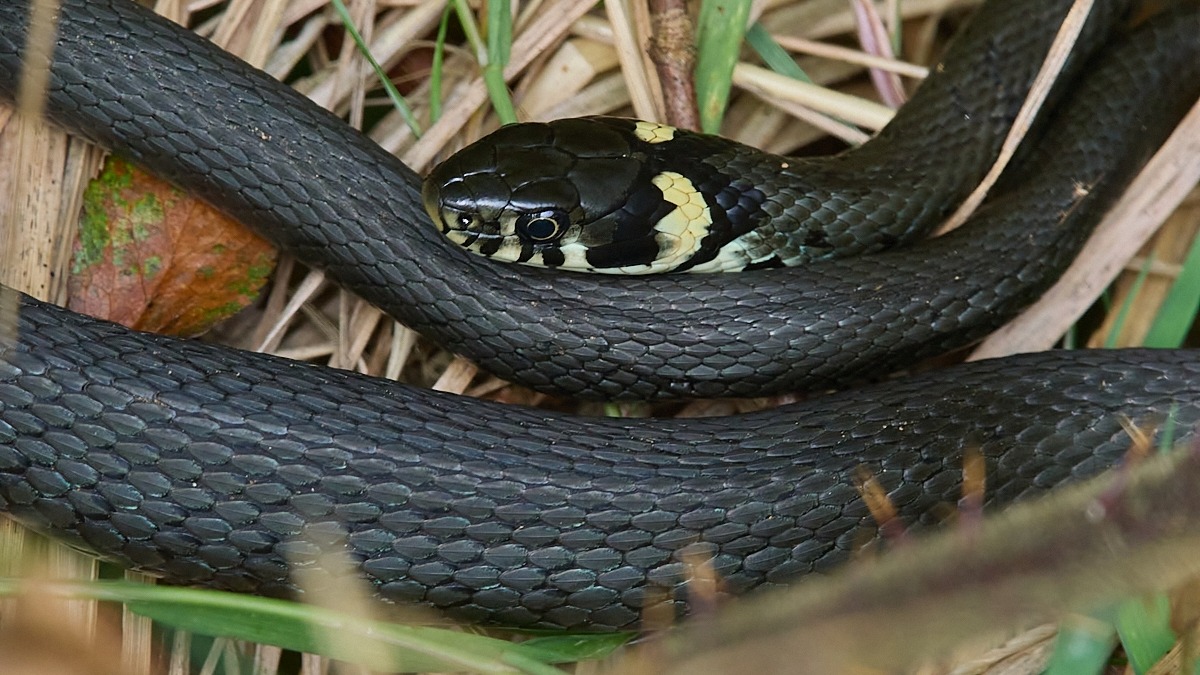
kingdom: Animalia
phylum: Chordata
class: Squamata
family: Colubridae
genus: Natrix
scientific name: Natrix natrix
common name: Snog
